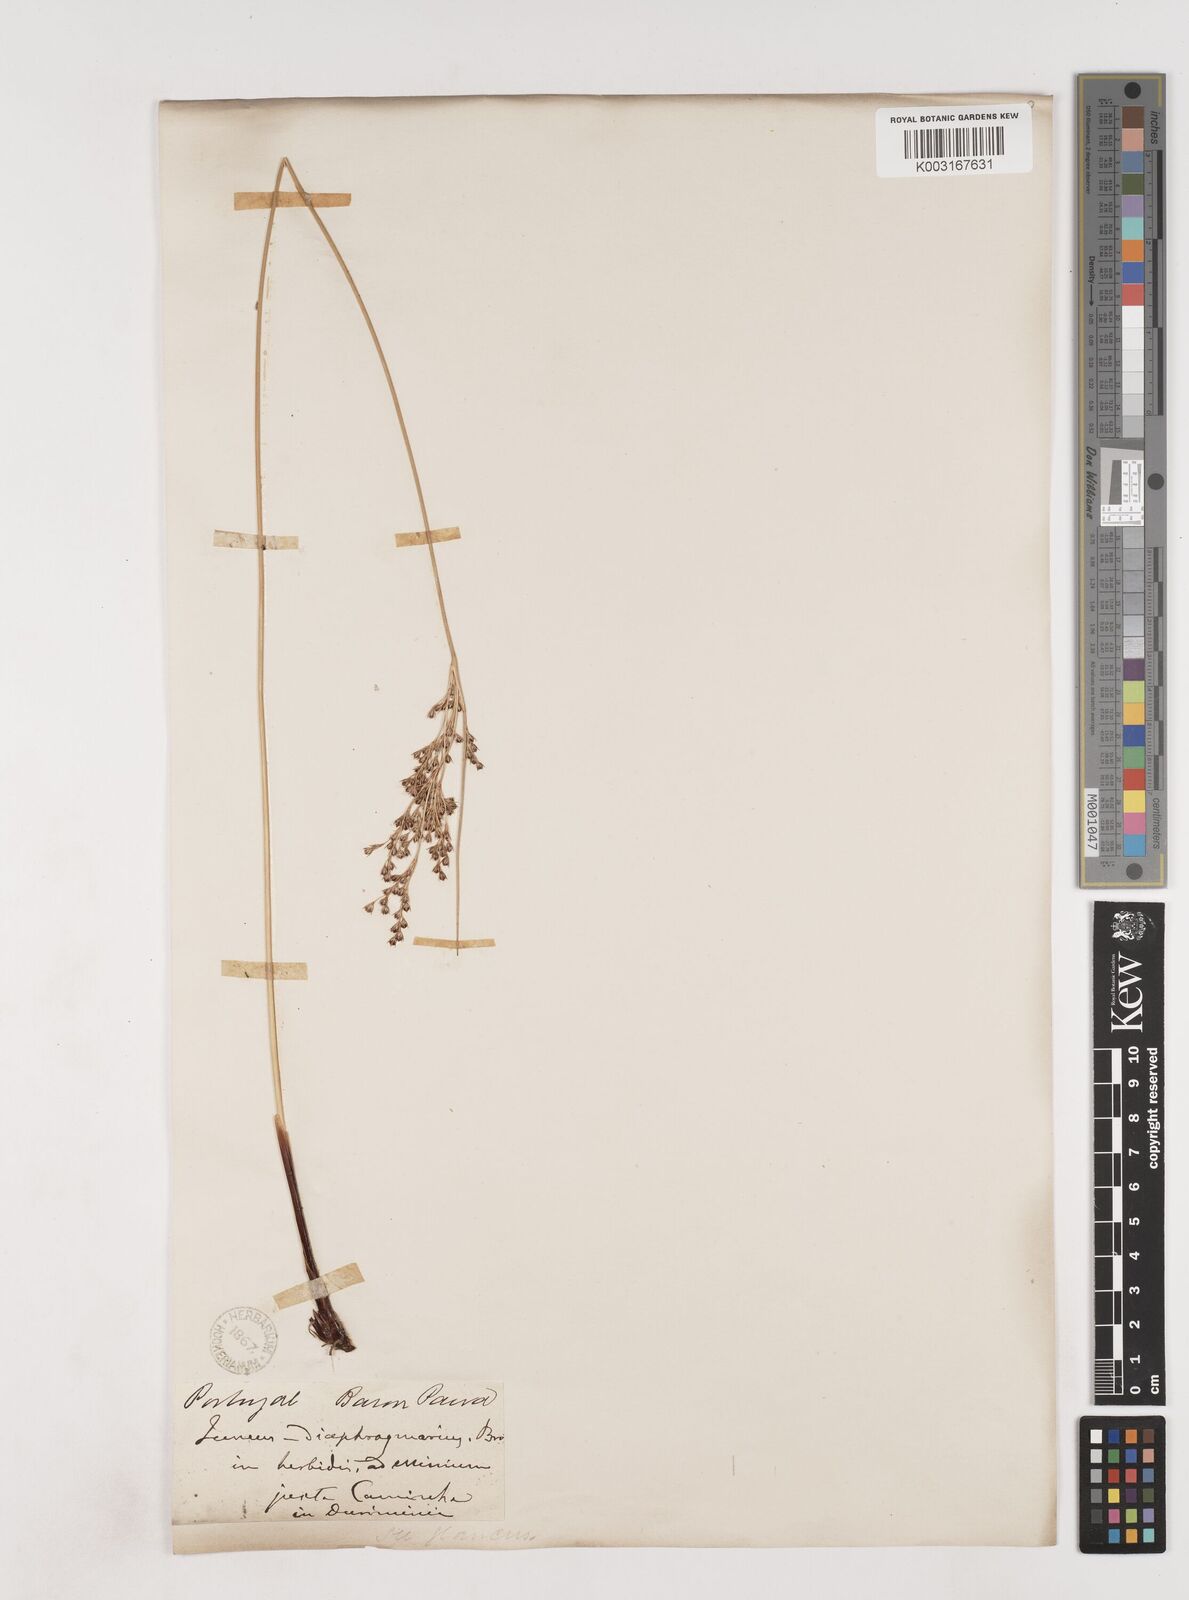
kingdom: Plantae
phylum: Tracheophyta
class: Liliopsida
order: Poales
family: Juncaceae
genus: Juncus
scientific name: Juncus inflexus
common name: Hard rush
